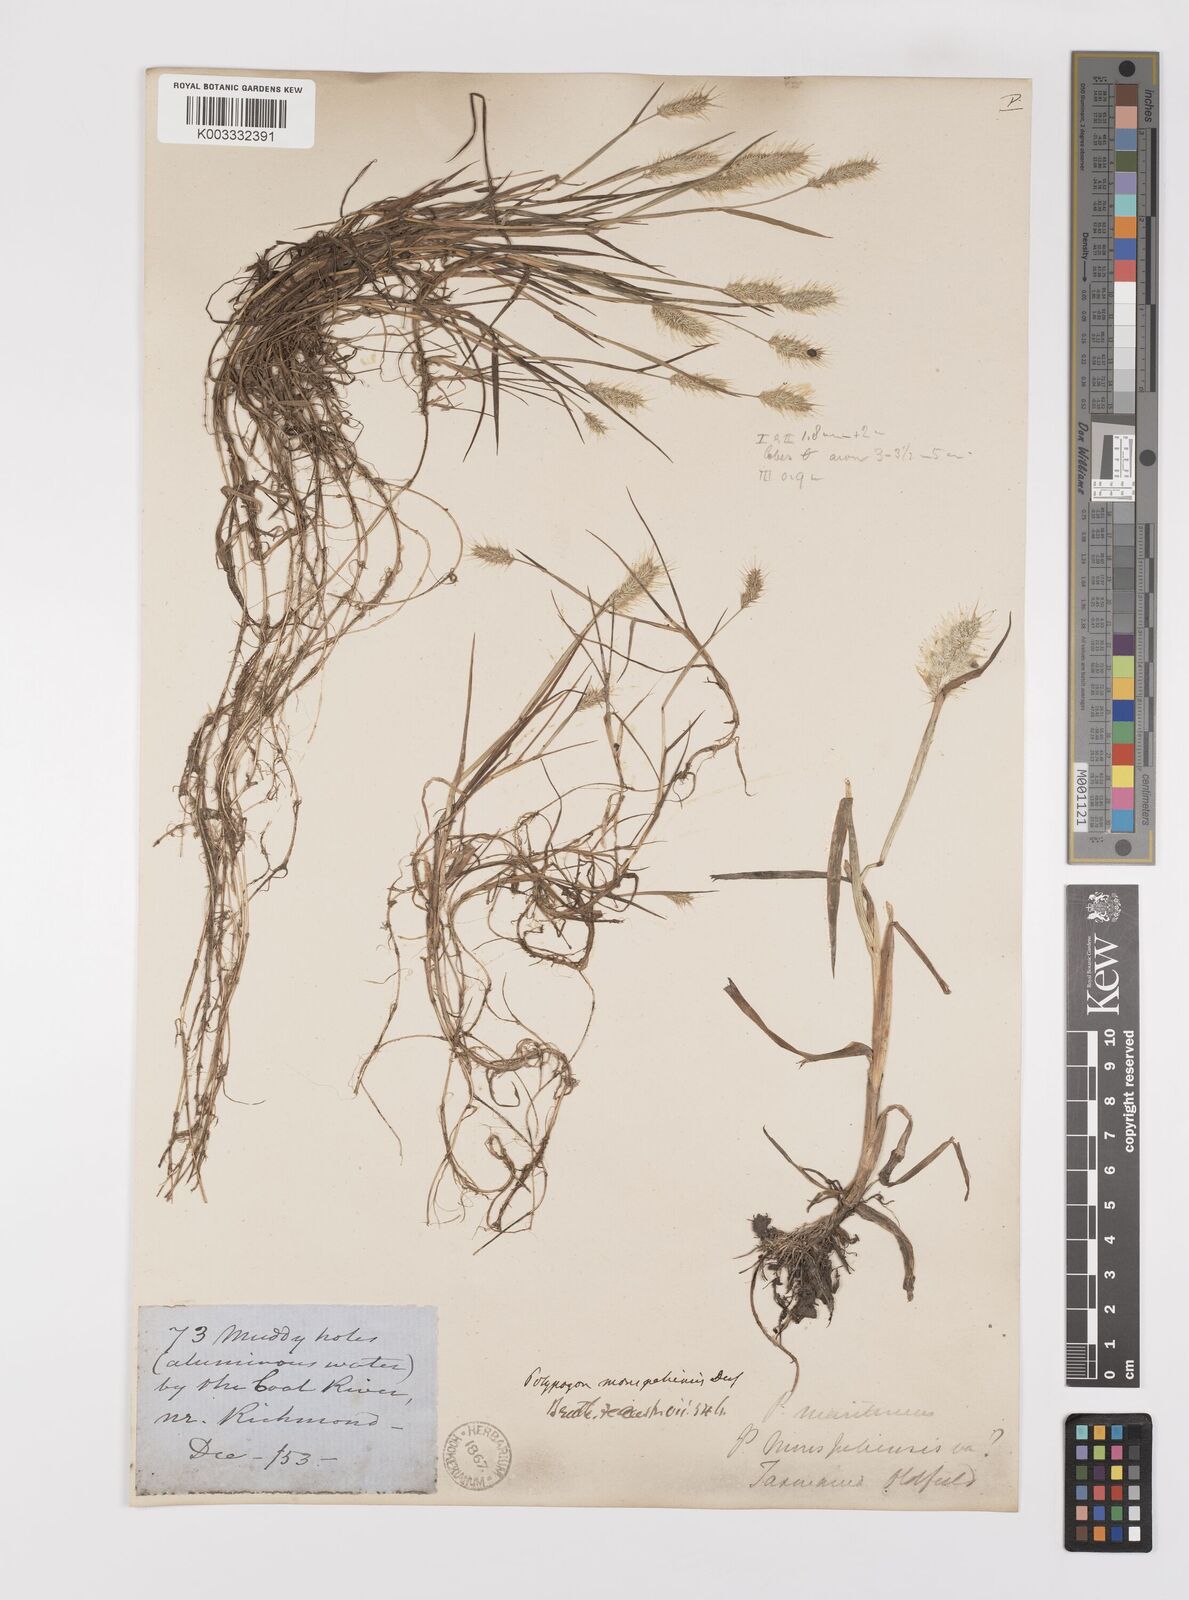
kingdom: Plantae
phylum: Tracheophyta
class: Liliopsida
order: Poales
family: Poaceae
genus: Polypogon
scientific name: Polypogon monspeliensis
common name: Annual rabbitsfoot grass
